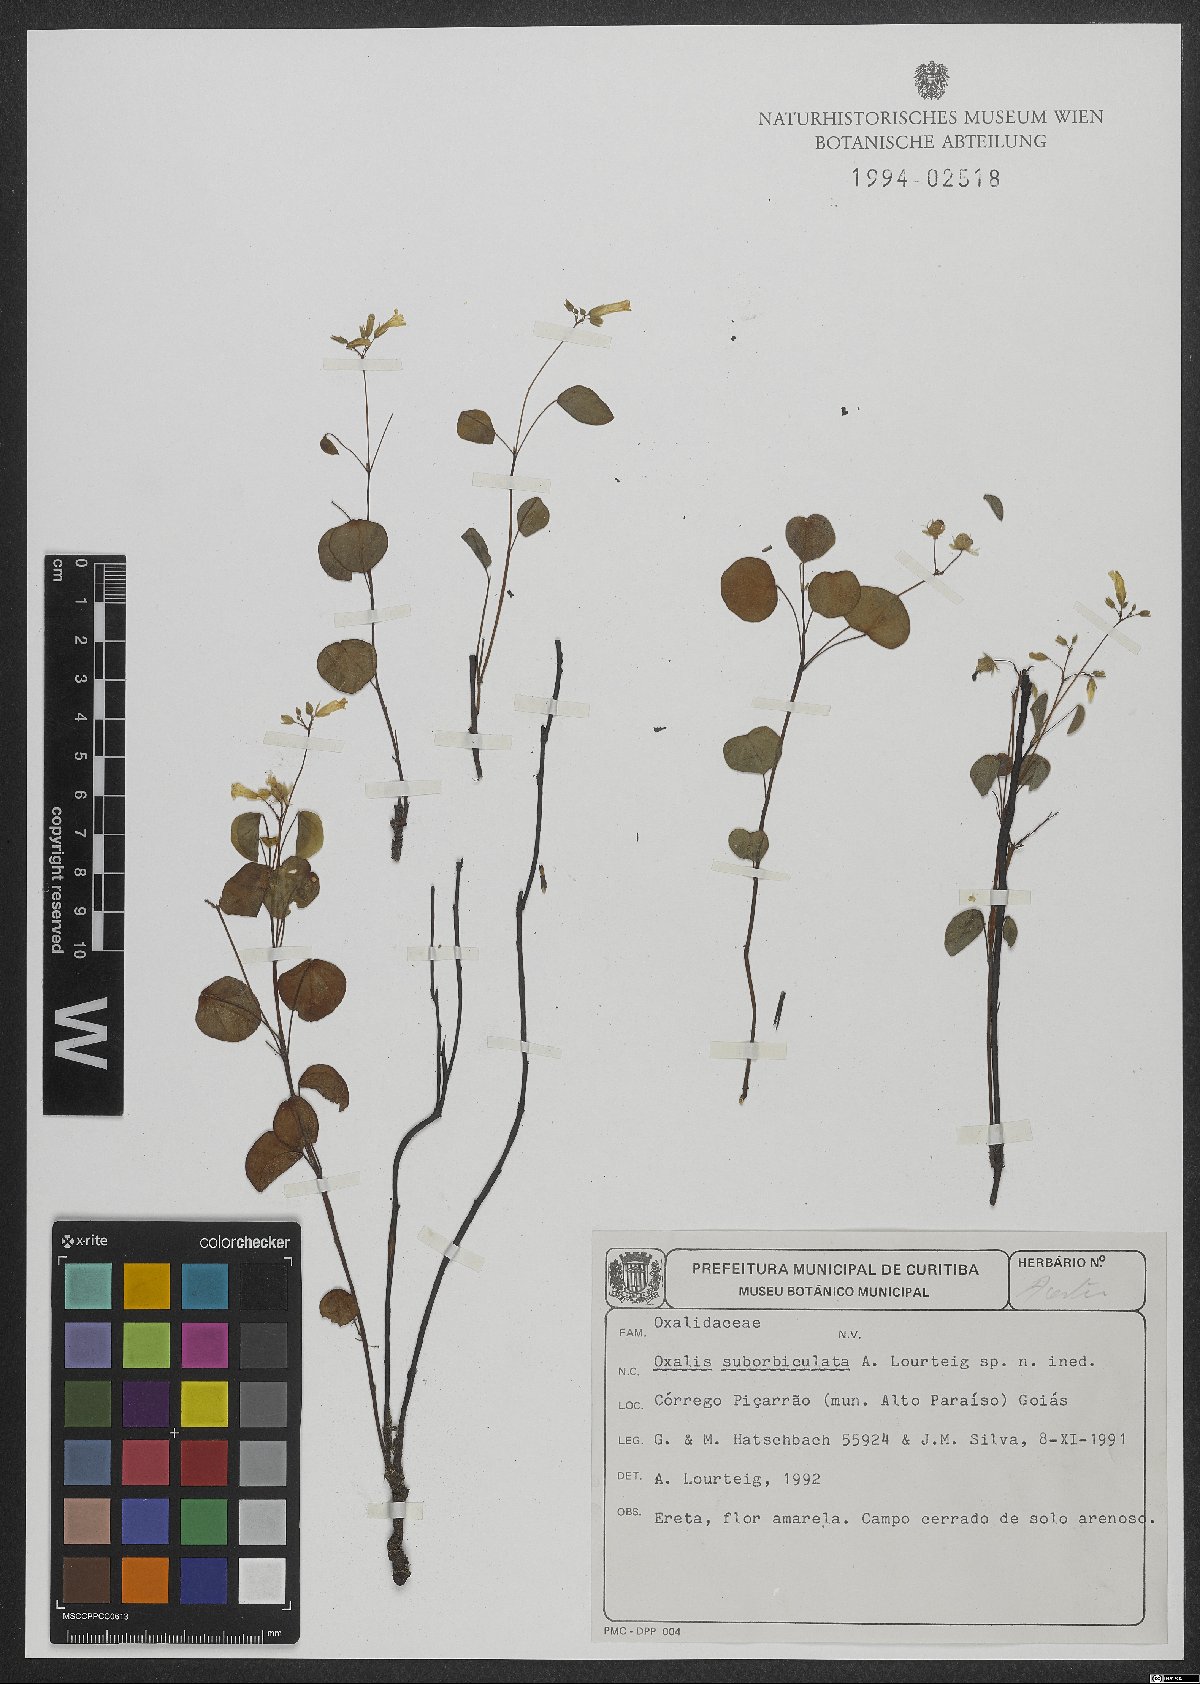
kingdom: Plantae
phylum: Tracheophyta
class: Magnoliopsida
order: Oxalidales
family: Oxalidaceae
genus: Oxalis
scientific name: Oxalis suborbiculata
